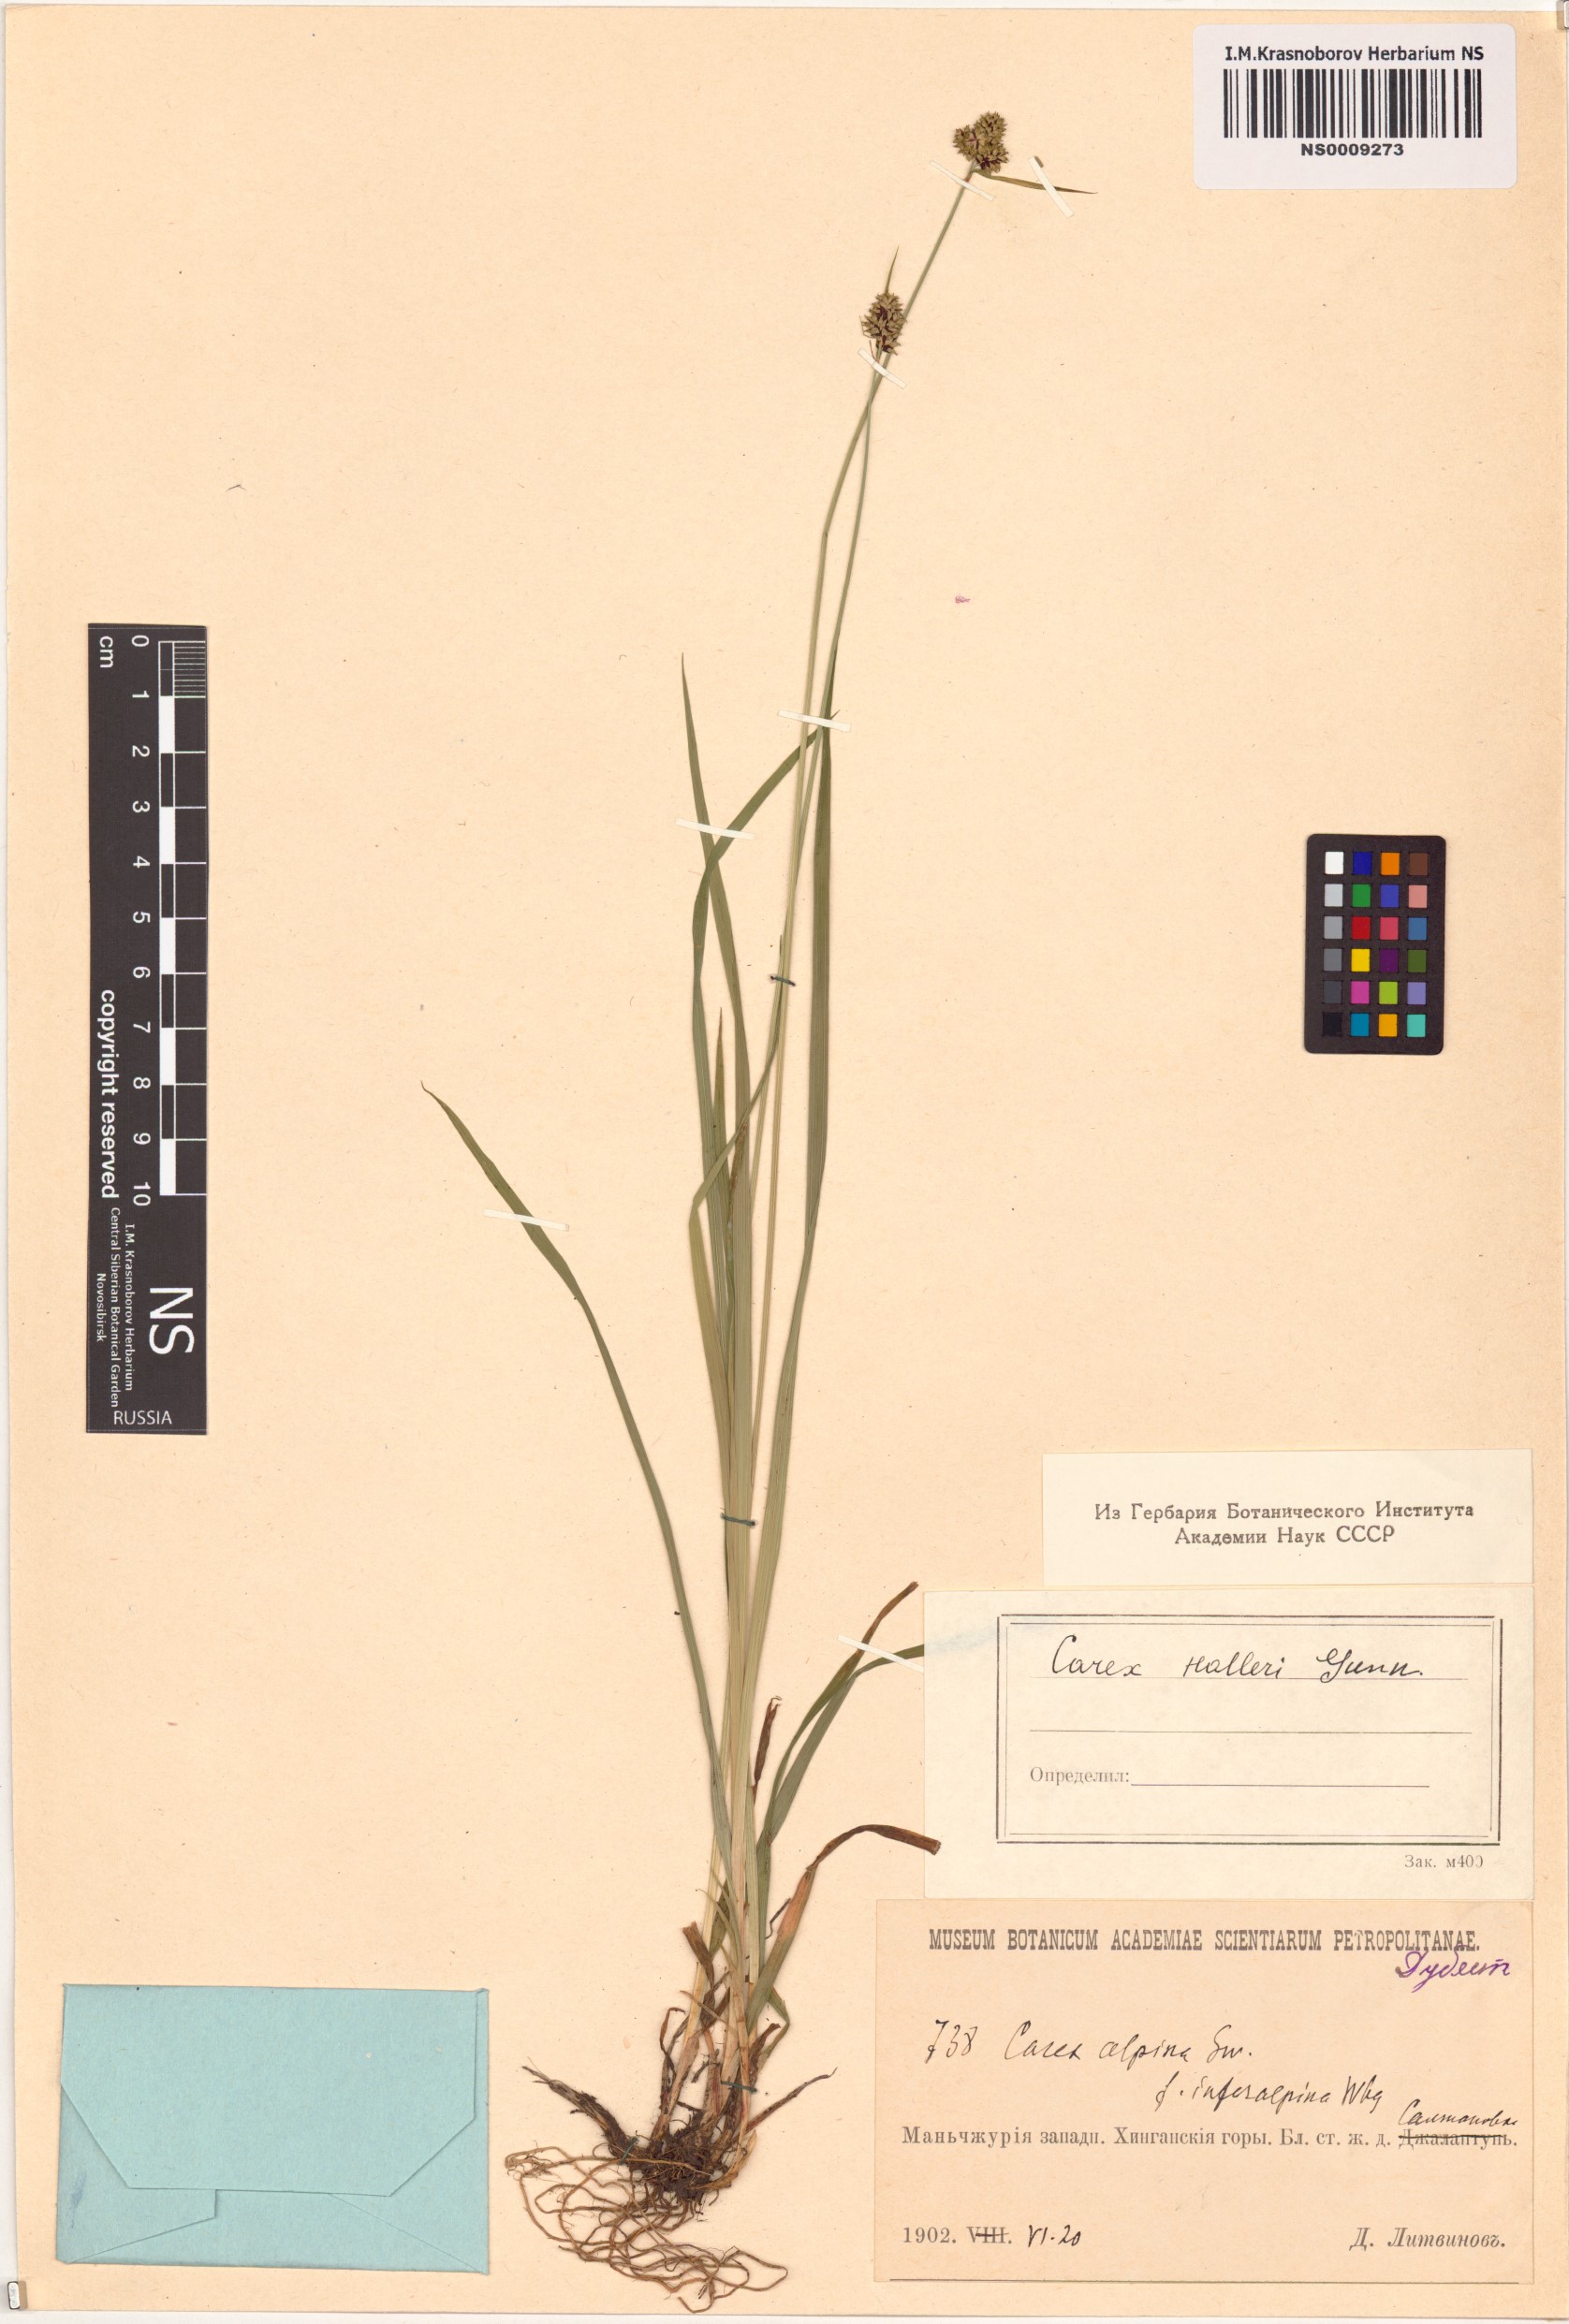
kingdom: Plantae
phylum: Tracheophyta
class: Liliopsida
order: Poales
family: Cyperaceae
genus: Carex
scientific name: Carex norvegica
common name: Close-headed alpine-sedge
